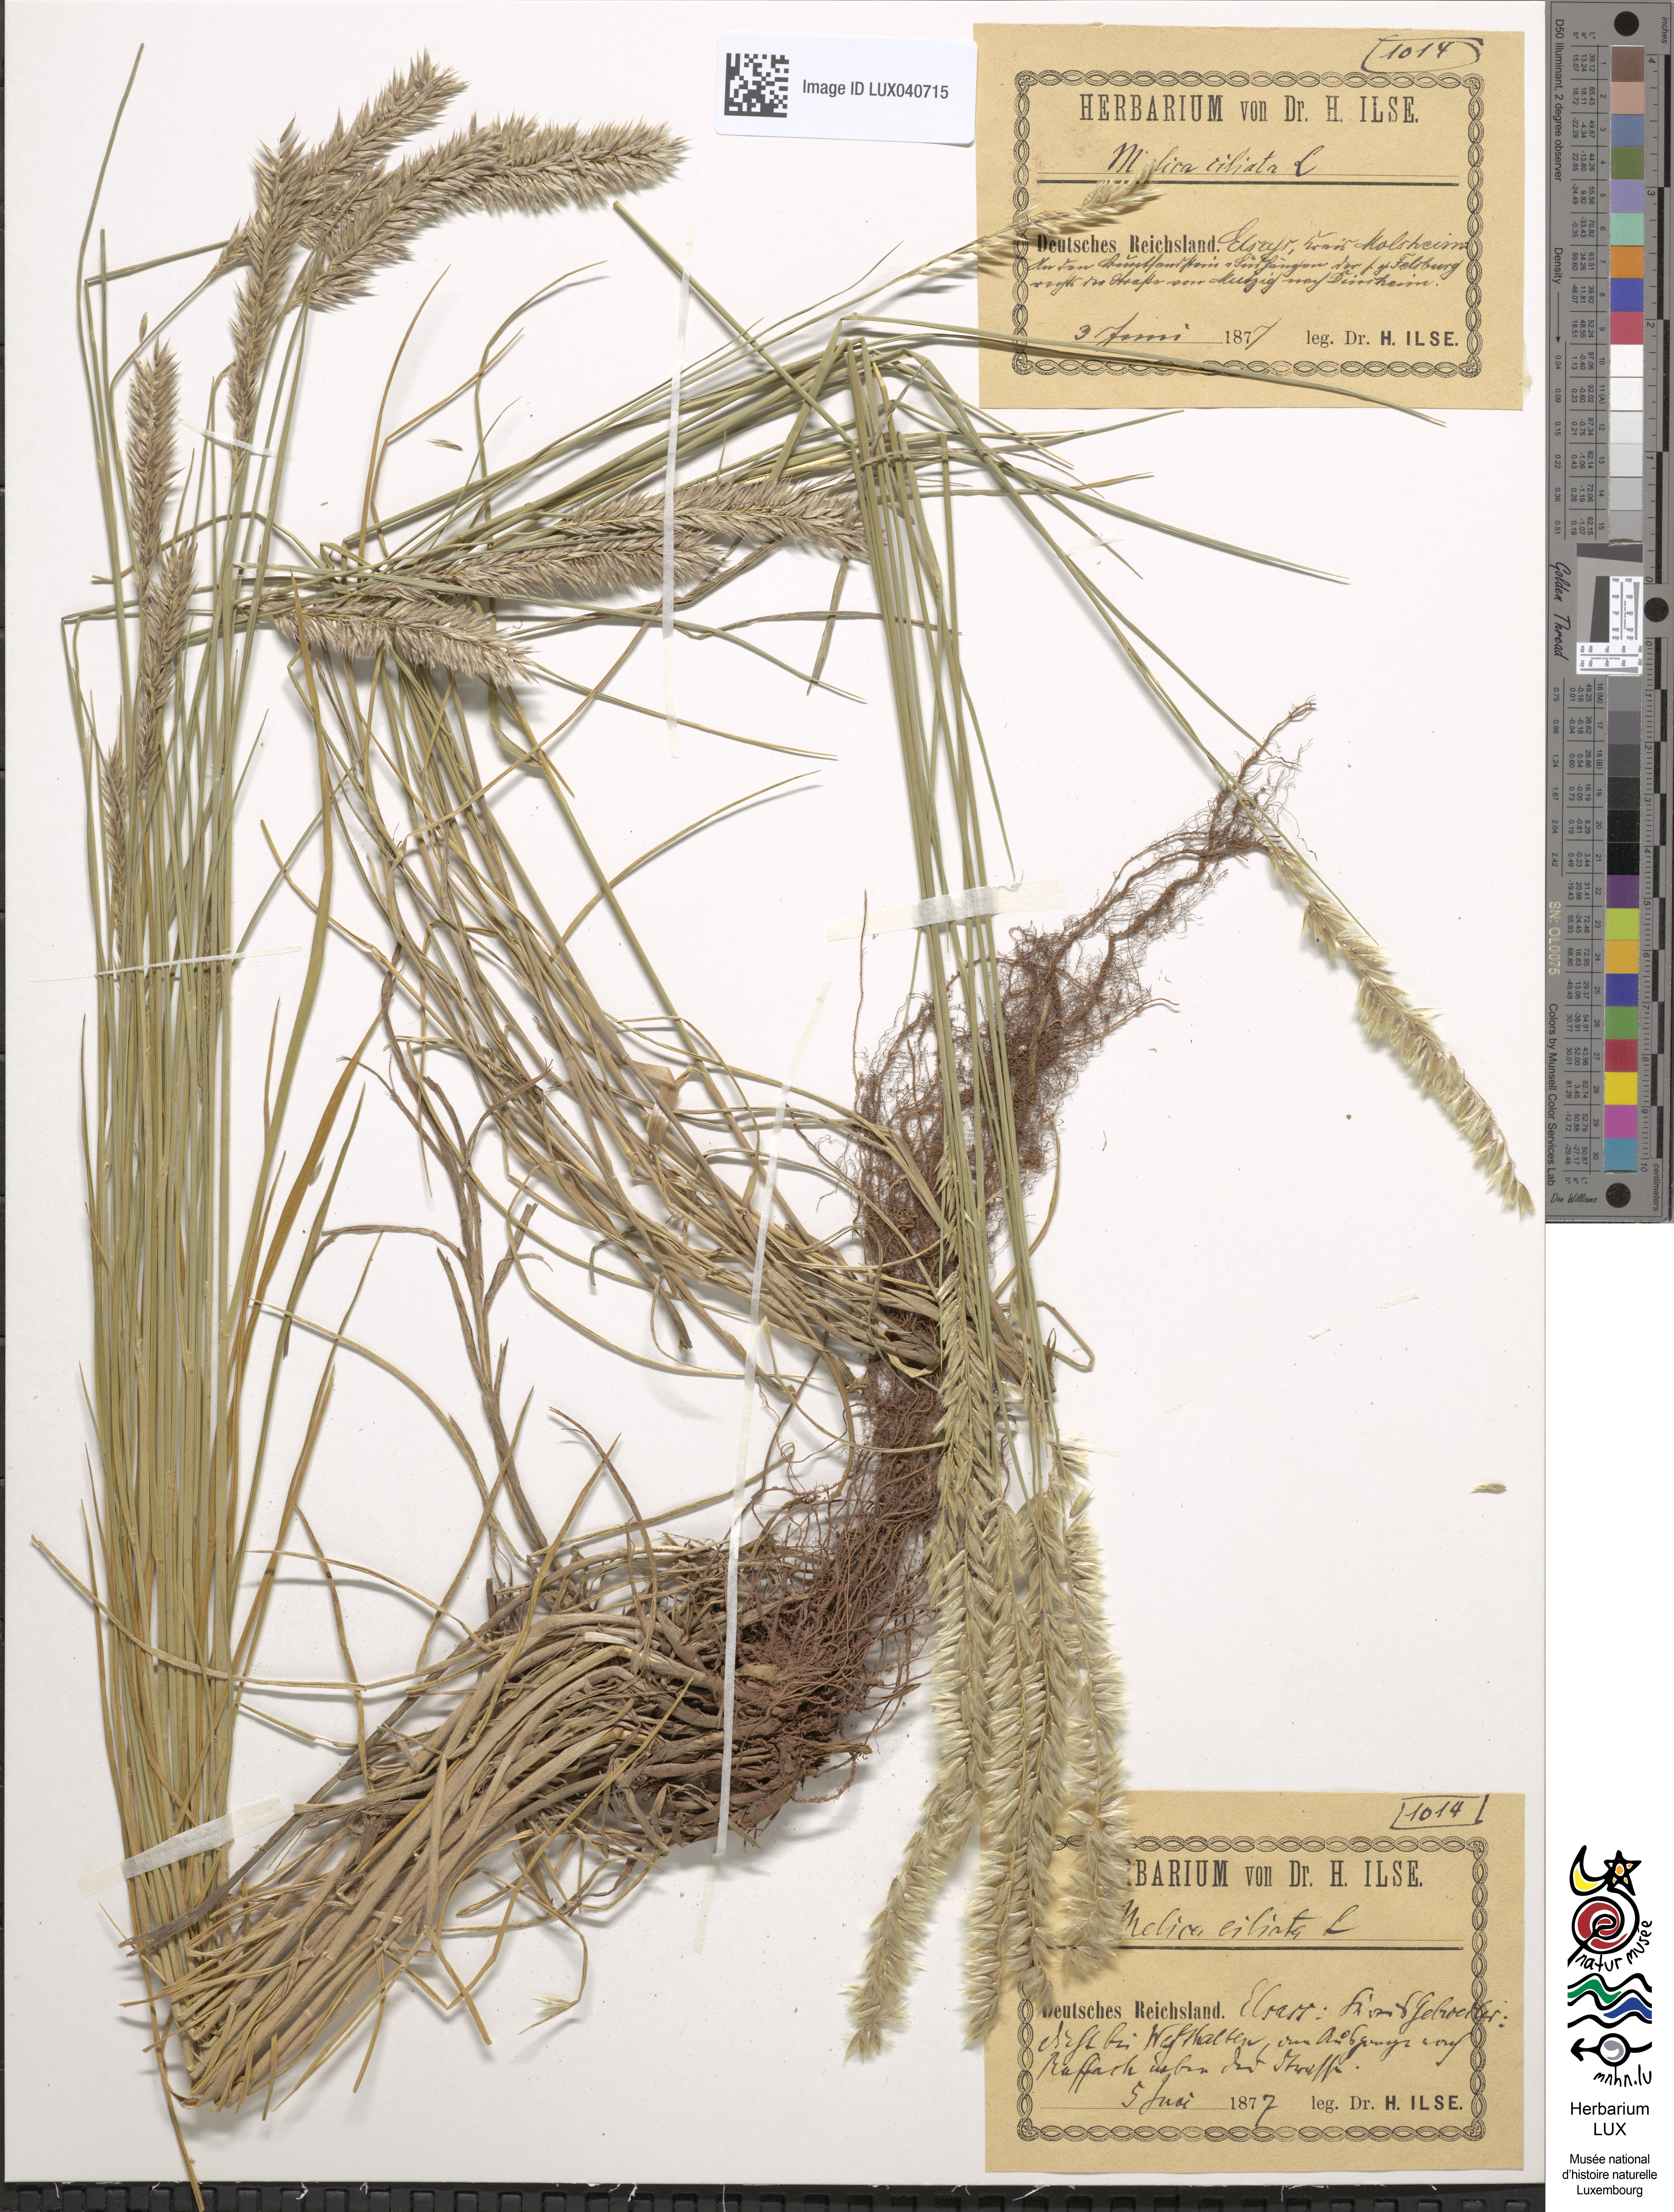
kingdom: Plantae
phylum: Tracheophyta
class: Liliopsida
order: Poales
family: Poaceae
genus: Melica
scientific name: Melica ciliata
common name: Hairy melicgrass
